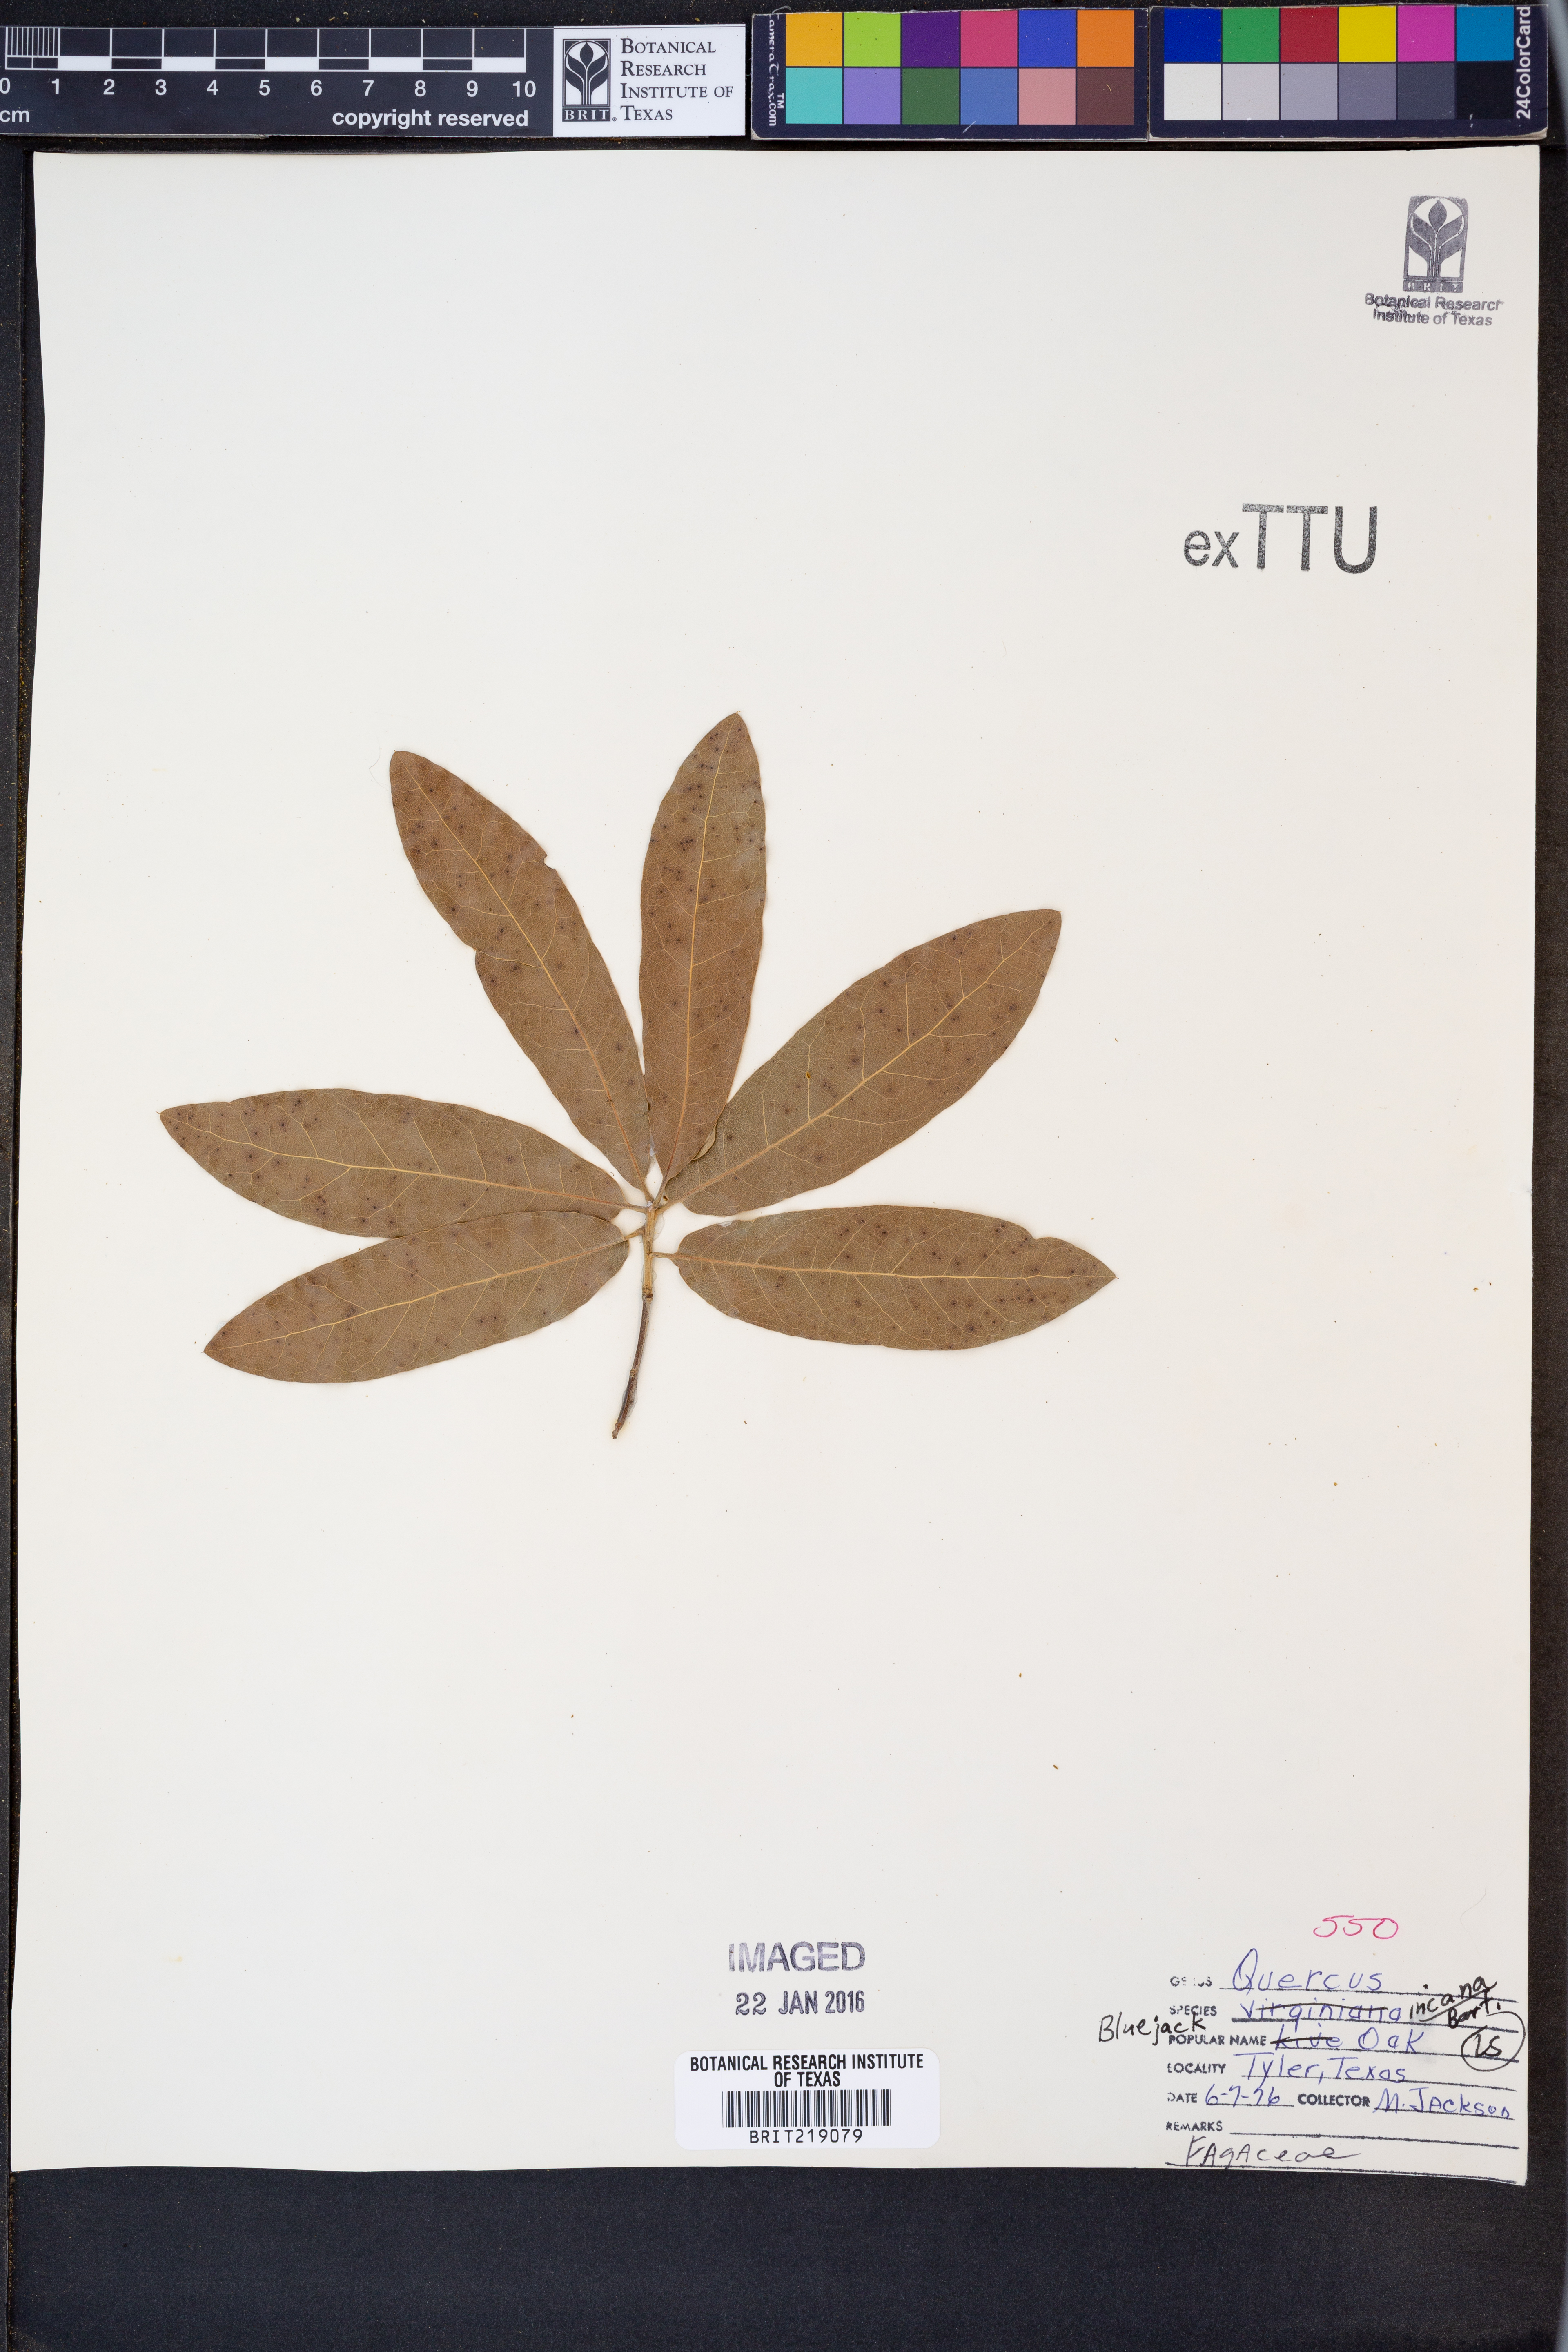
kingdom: Plantae
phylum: Tracheophyta
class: Magnoliopsida
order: Fagales
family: Fagaceae
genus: Quercus
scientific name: Quercus incana
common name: Bluejack oak
